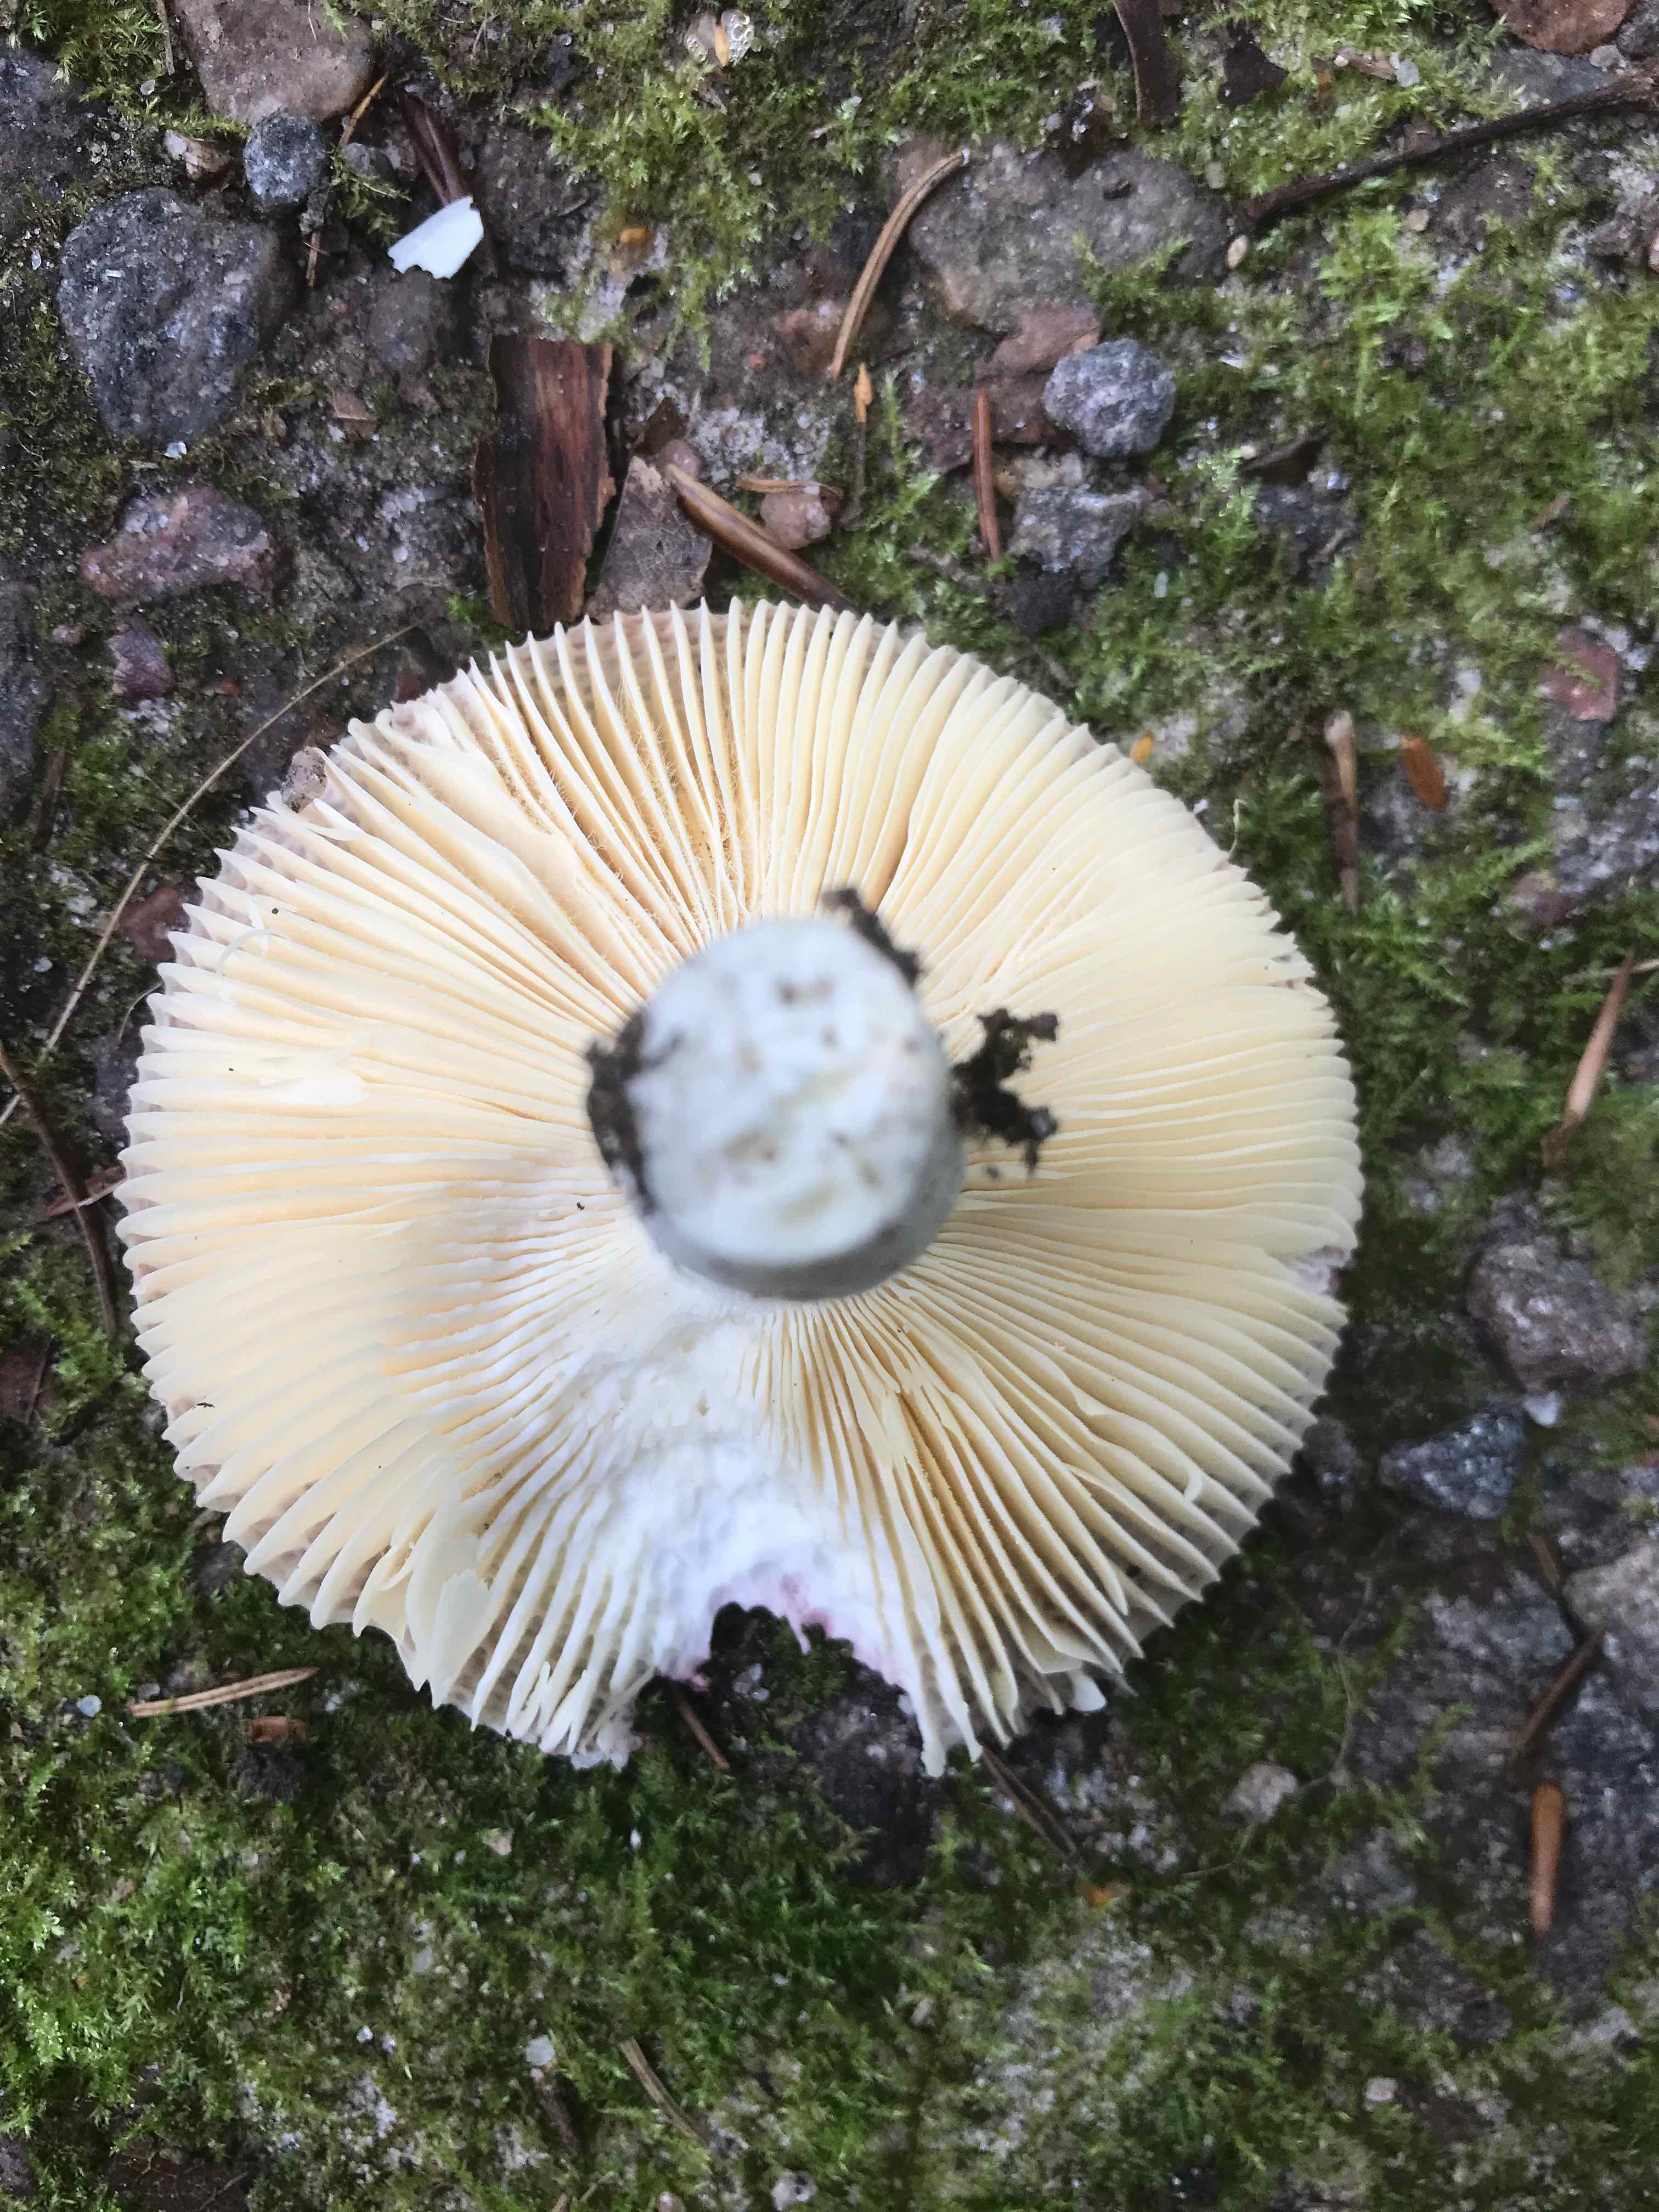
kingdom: Fungi
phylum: Basidiomycota
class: Agaricomycetes
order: Russulales
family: Russulaceae
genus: Russula
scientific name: Russula
